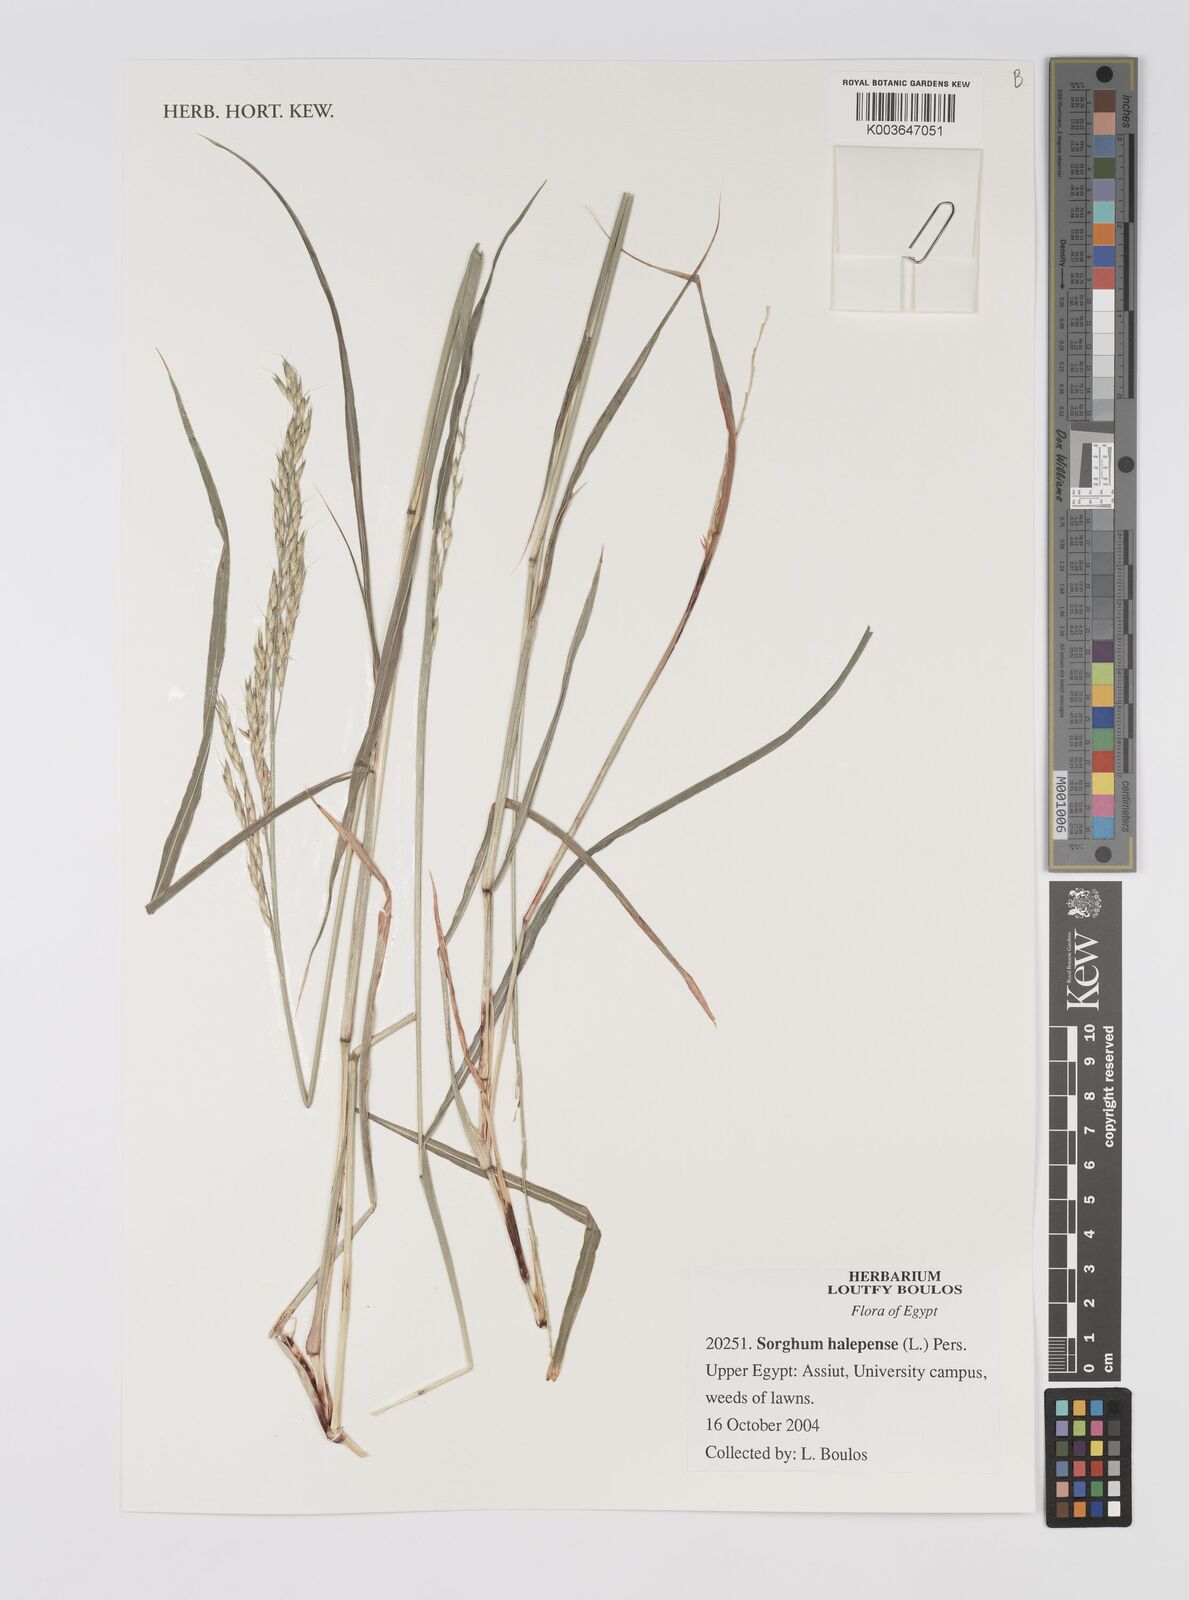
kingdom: Plantae
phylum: Tracheophyta
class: Liliopsida
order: Poales
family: Poaceae
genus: Sorghum
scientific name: Sorghum halepense
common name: Johnson-grass
